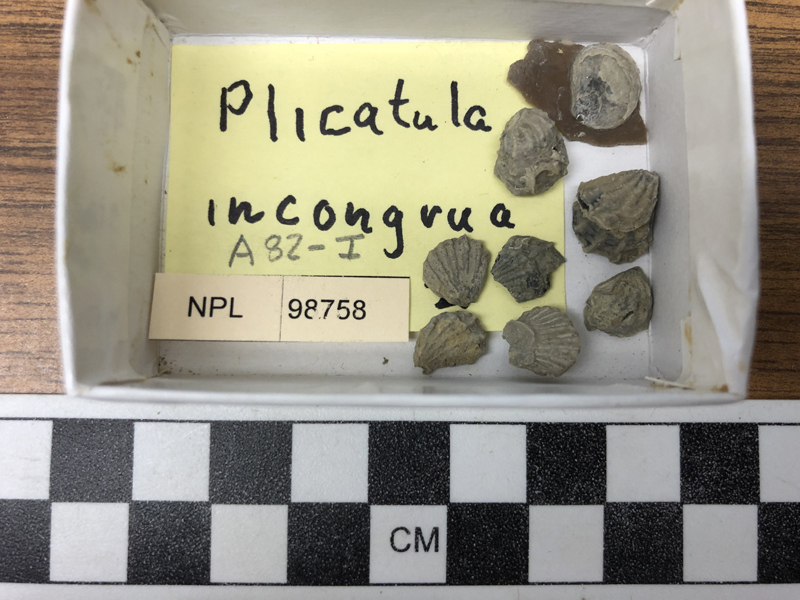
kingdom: Animalia
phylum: Mollusca
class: Bivalvia
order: Pectinida
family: Plicatulidae
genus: Plicatula
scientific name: Plicatula
